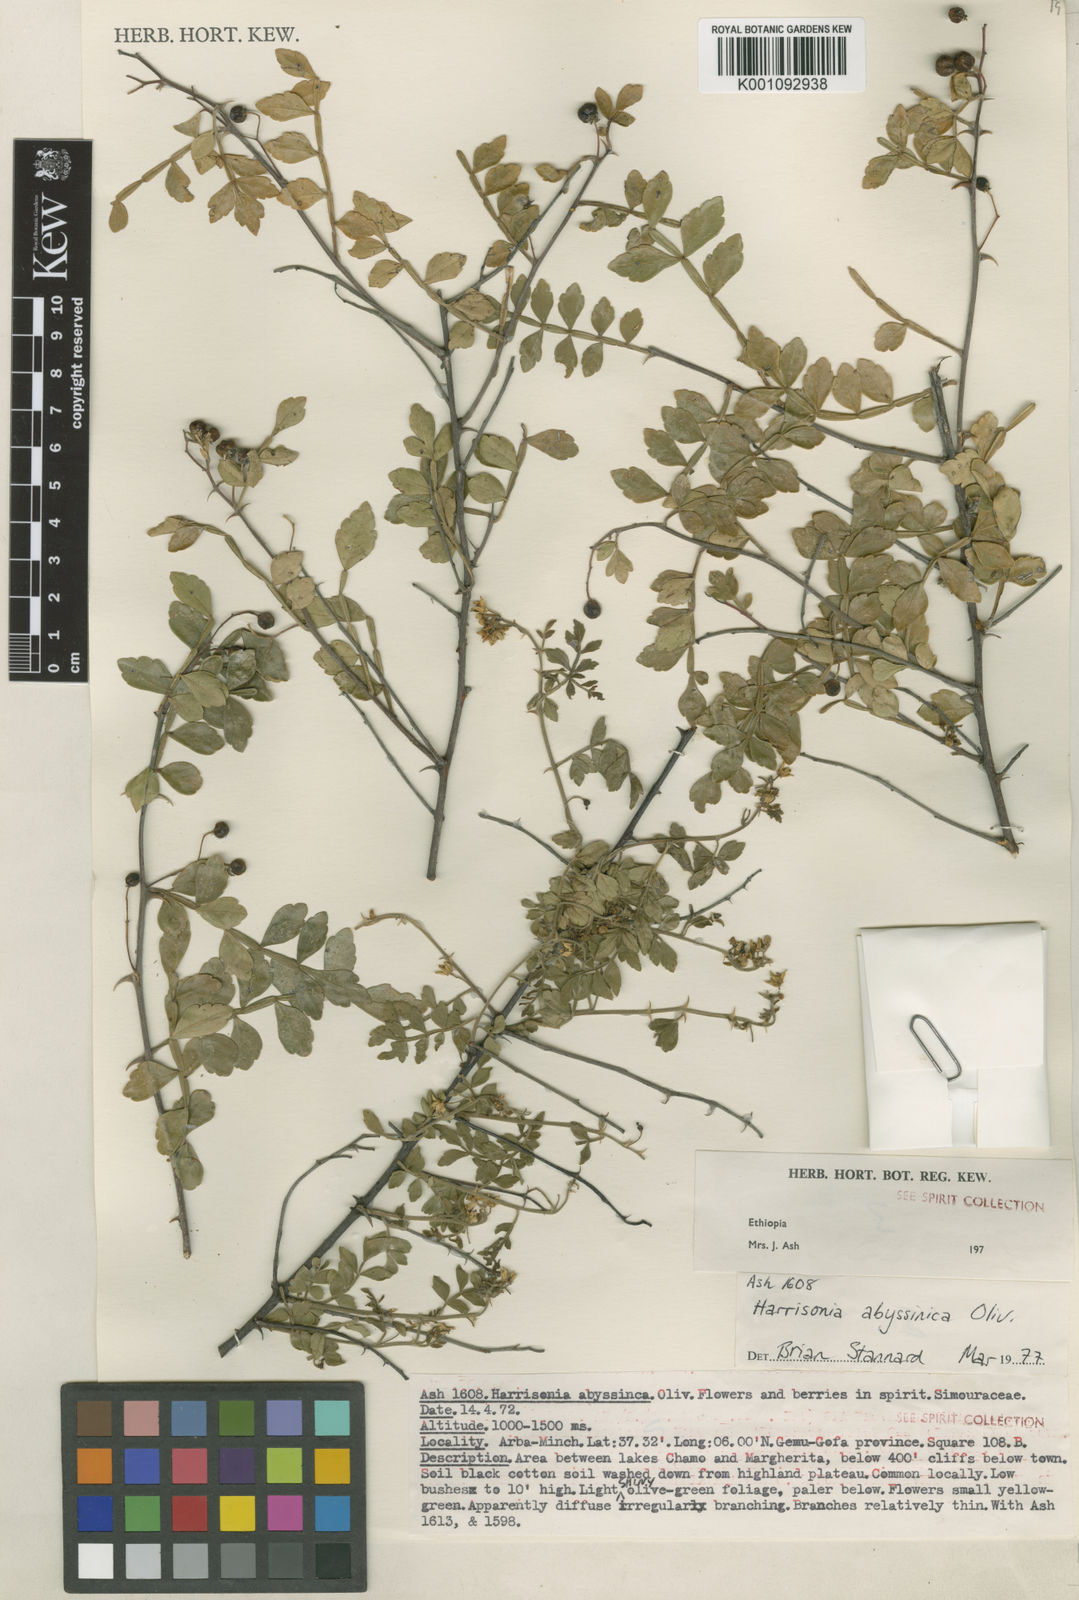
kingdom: Plantae
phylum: Tracheophyta
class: Magnoliopsida
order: Sapindales
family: Rutaceae
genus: Harrisonia
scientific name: Harrisonia abyssinica
